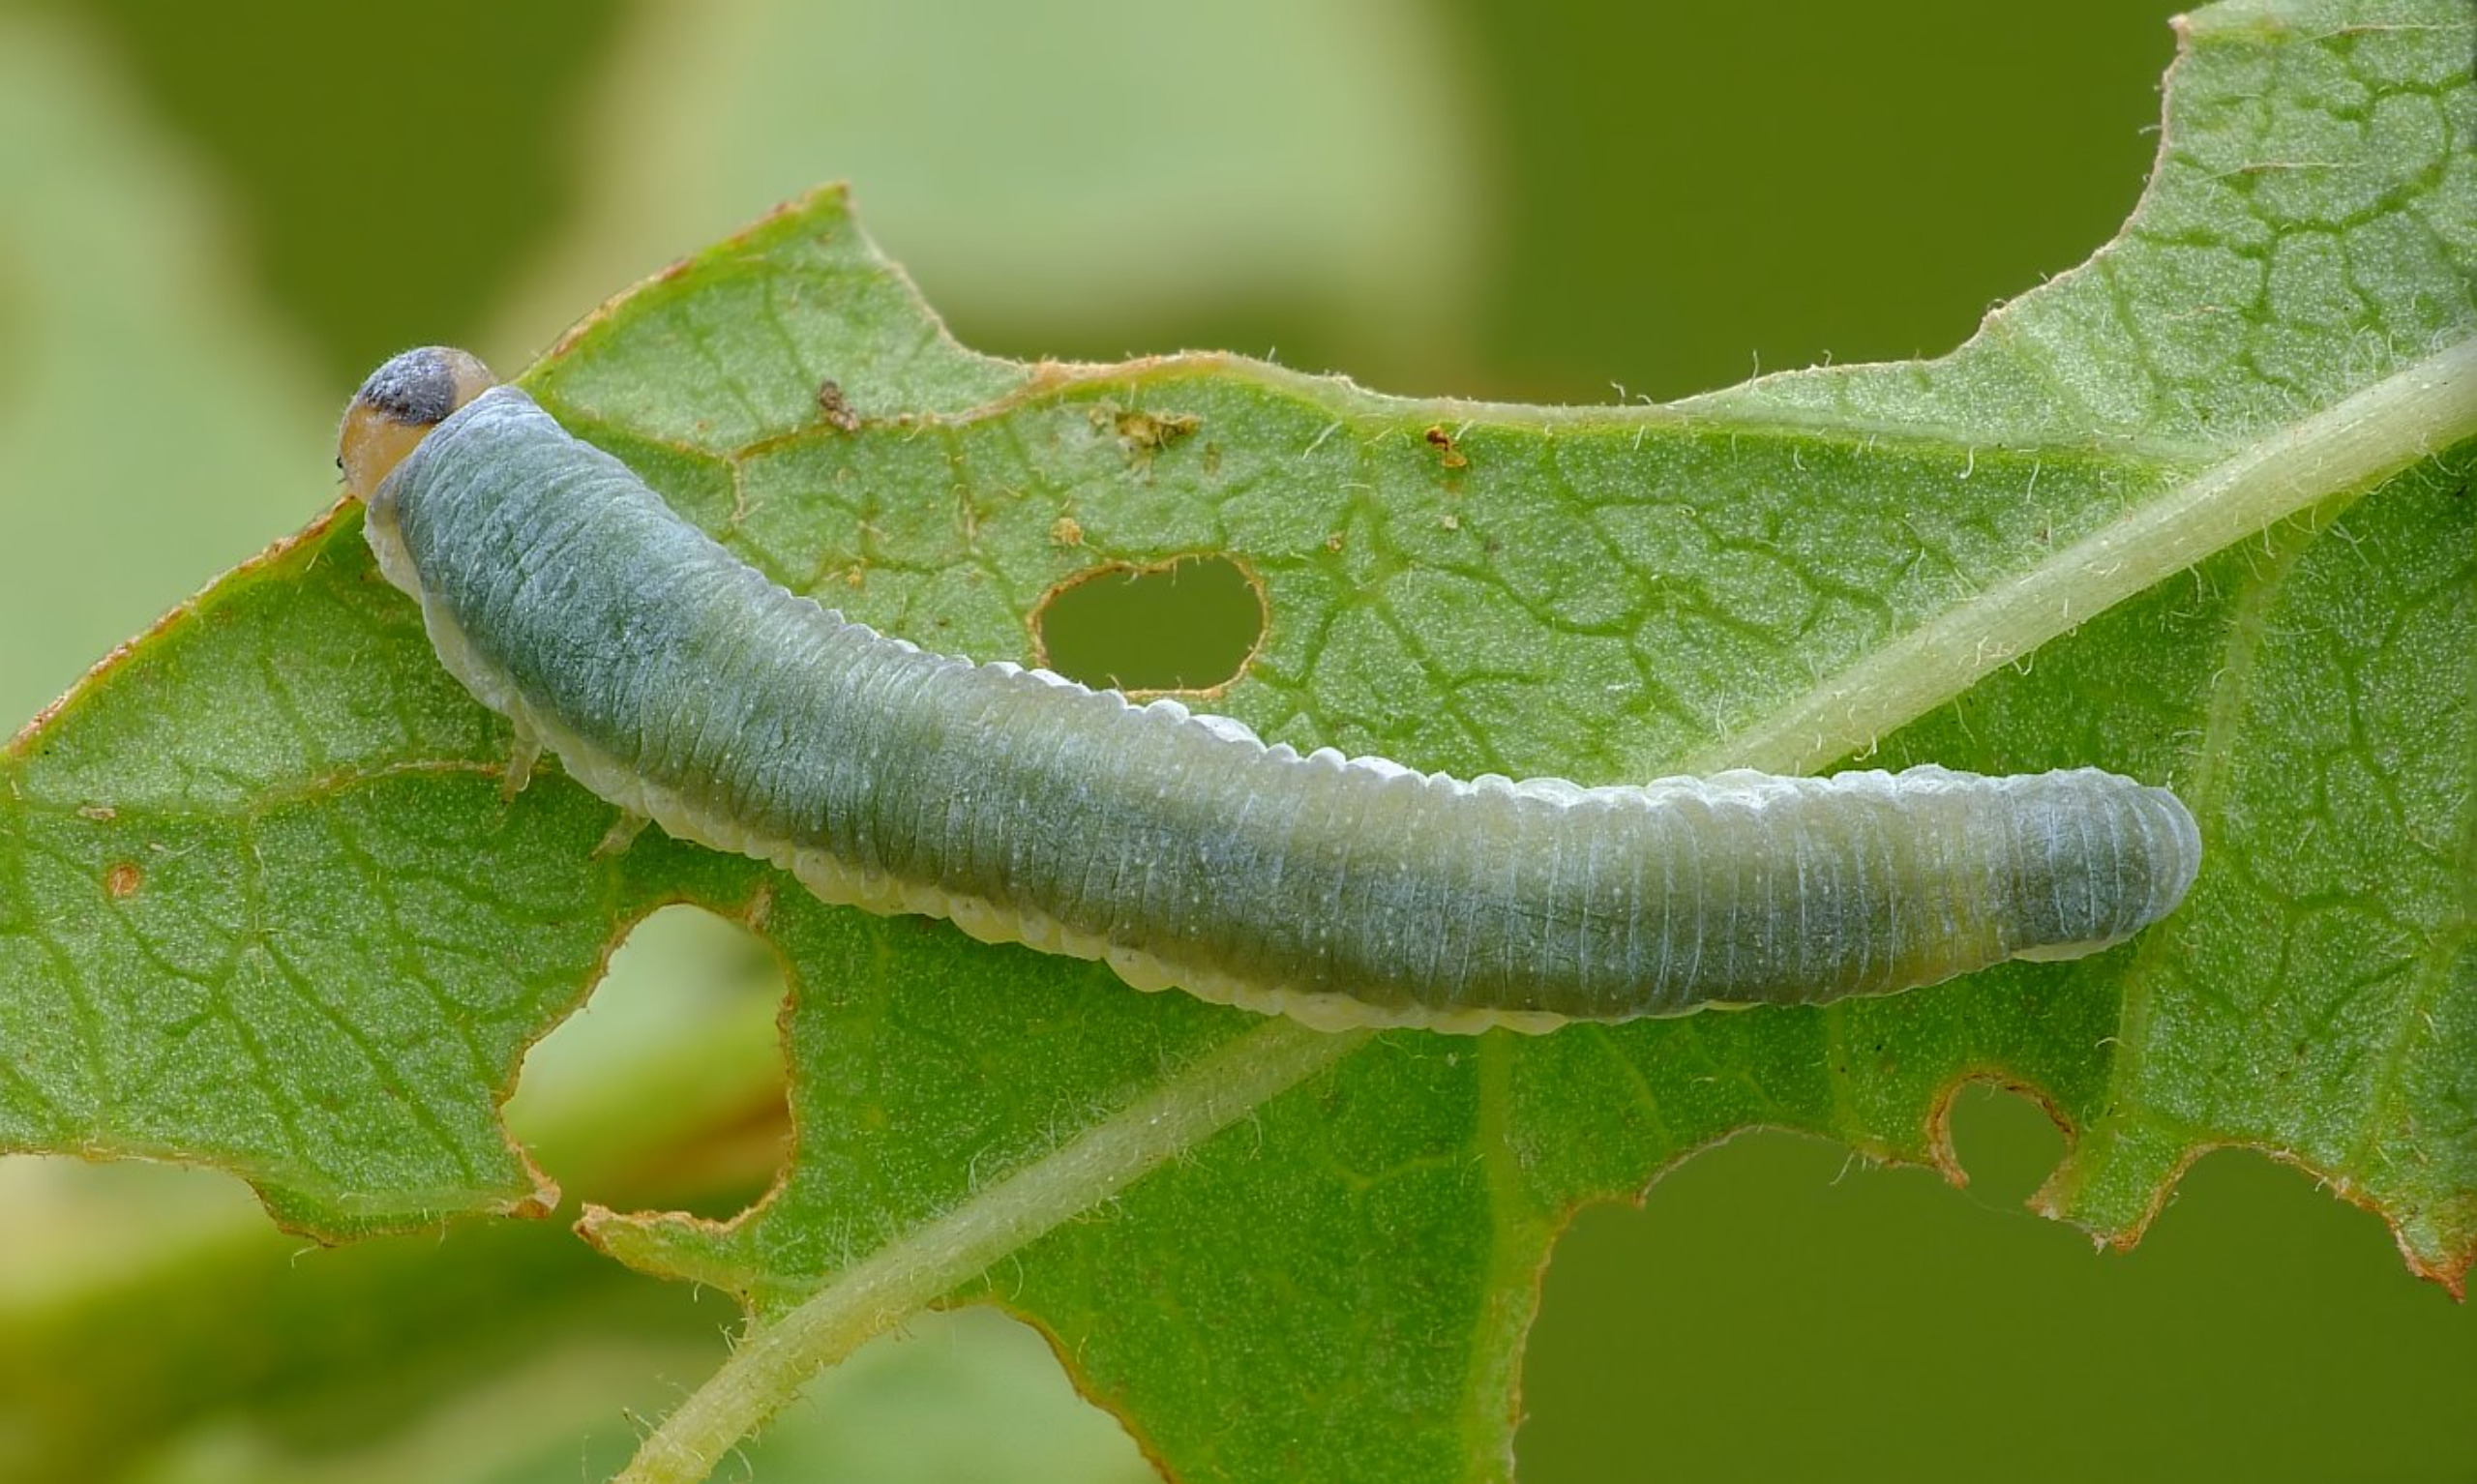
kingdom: Animalia
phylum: Arthropoda
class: Insecta
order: Hymenoptera
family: Tenthredinidae
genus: Monostegia
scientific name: Monostegia abdominalis
